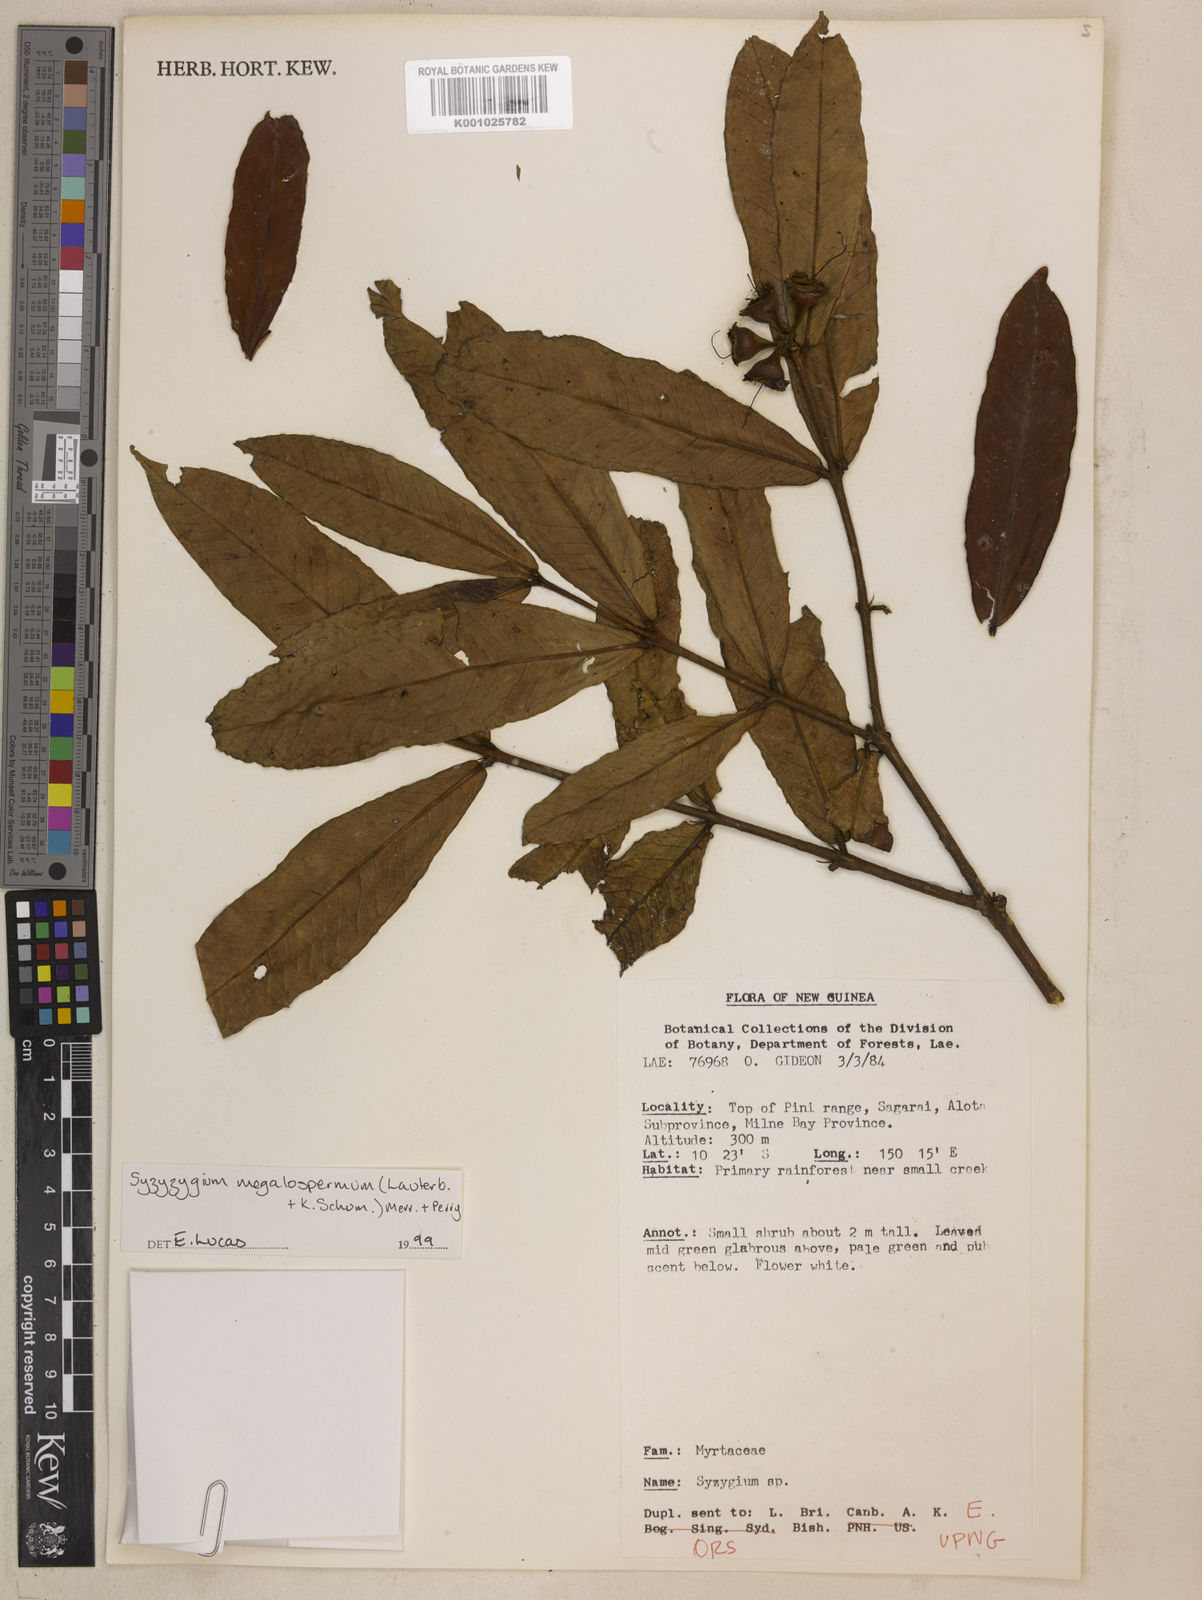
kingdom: Plantae
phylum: Tracheophyta
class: Magnoliopsida
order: Myrtales
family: Myrtaceae
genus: Syzygium
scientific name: Syzygium megalospermum
